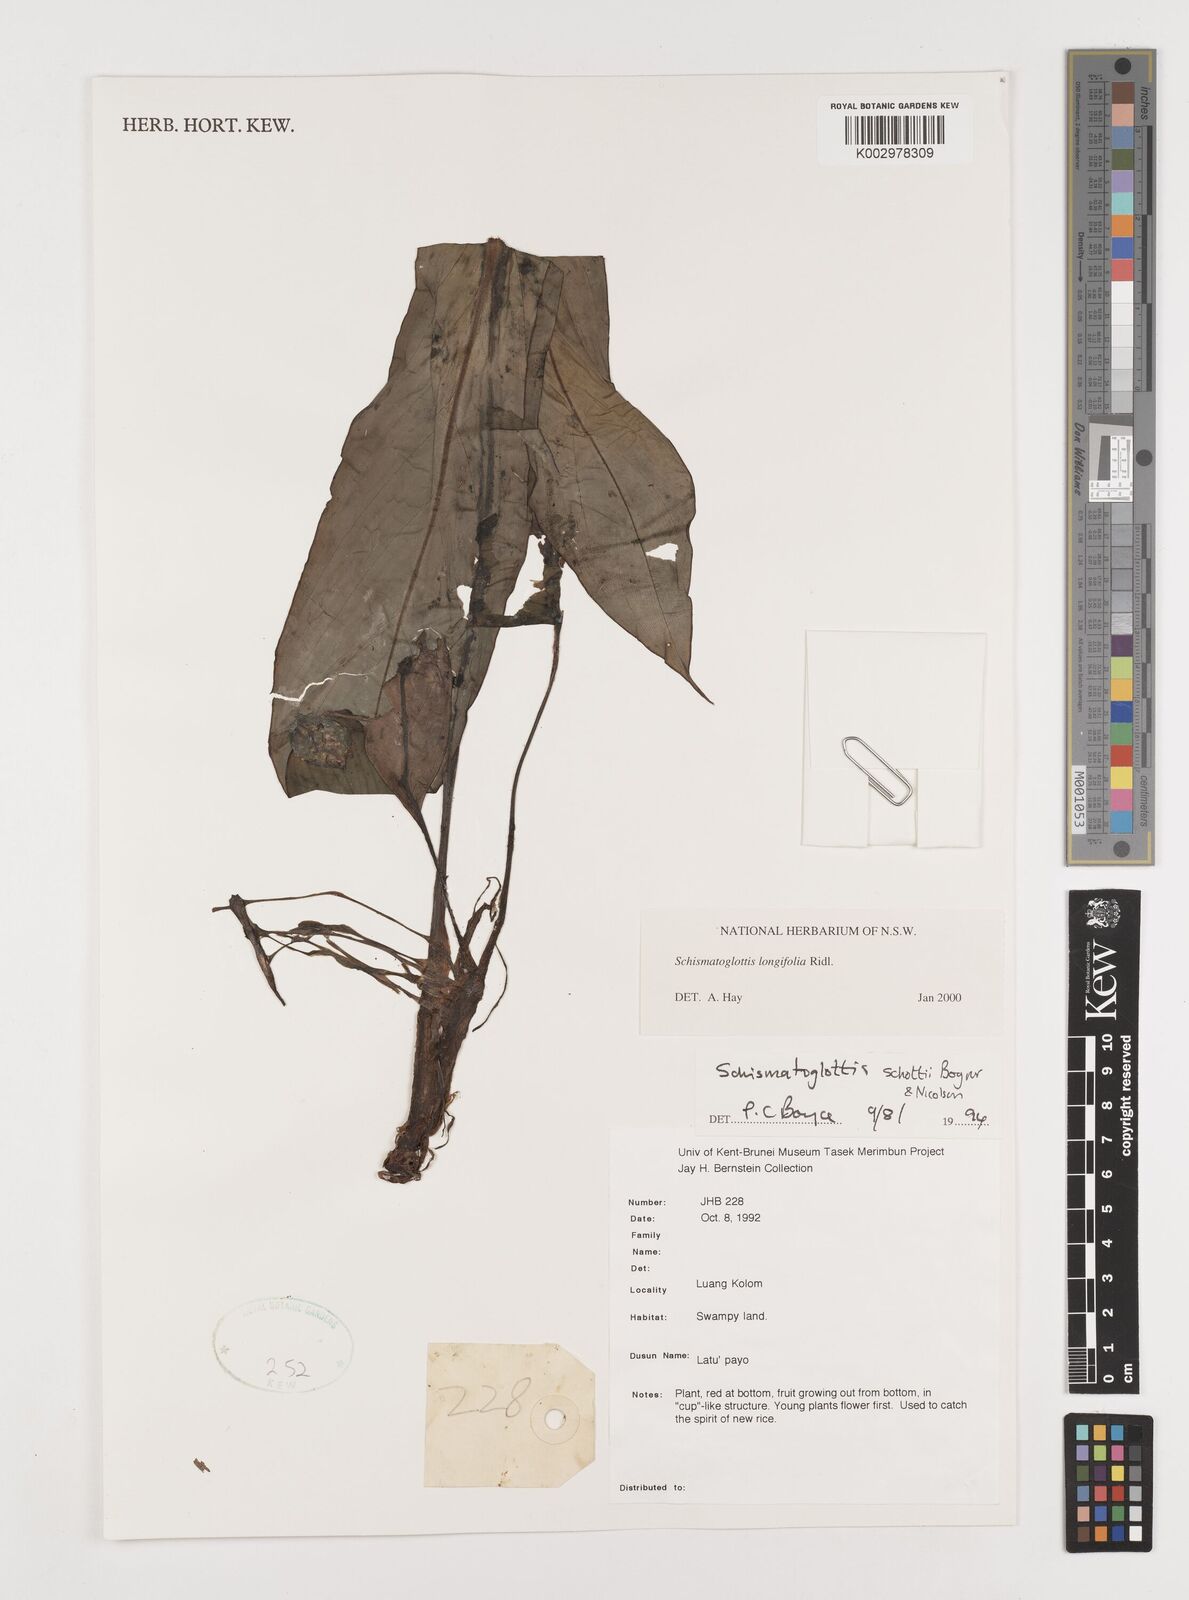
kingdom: Plantae
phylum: Tracheophyta
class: Liliopsida
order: Alismatales
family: Araceae
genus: Vesta
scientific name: Vesta longifolia
